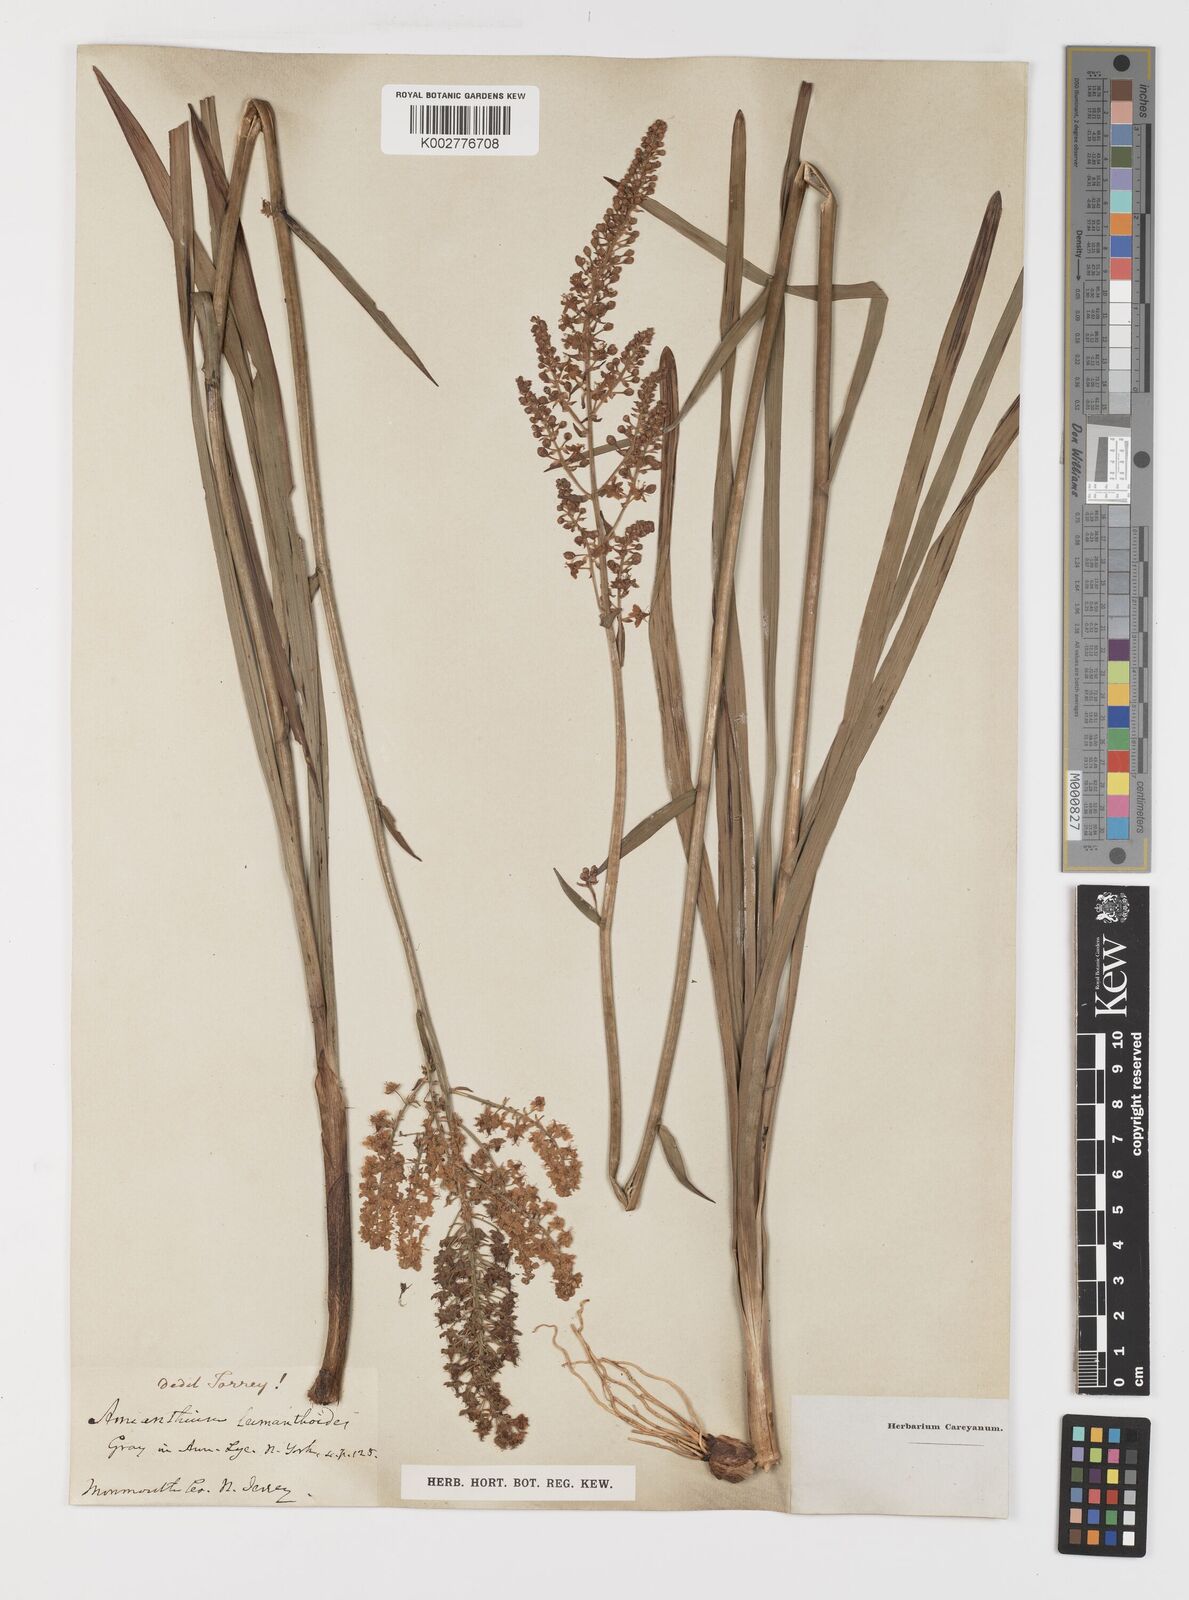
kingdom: Plantae
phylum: Tracheophyta
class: Liliopsida
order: Liliales
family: Melanthiaceae
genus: Stenanthium
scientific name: Stenanthium leimanthoides
